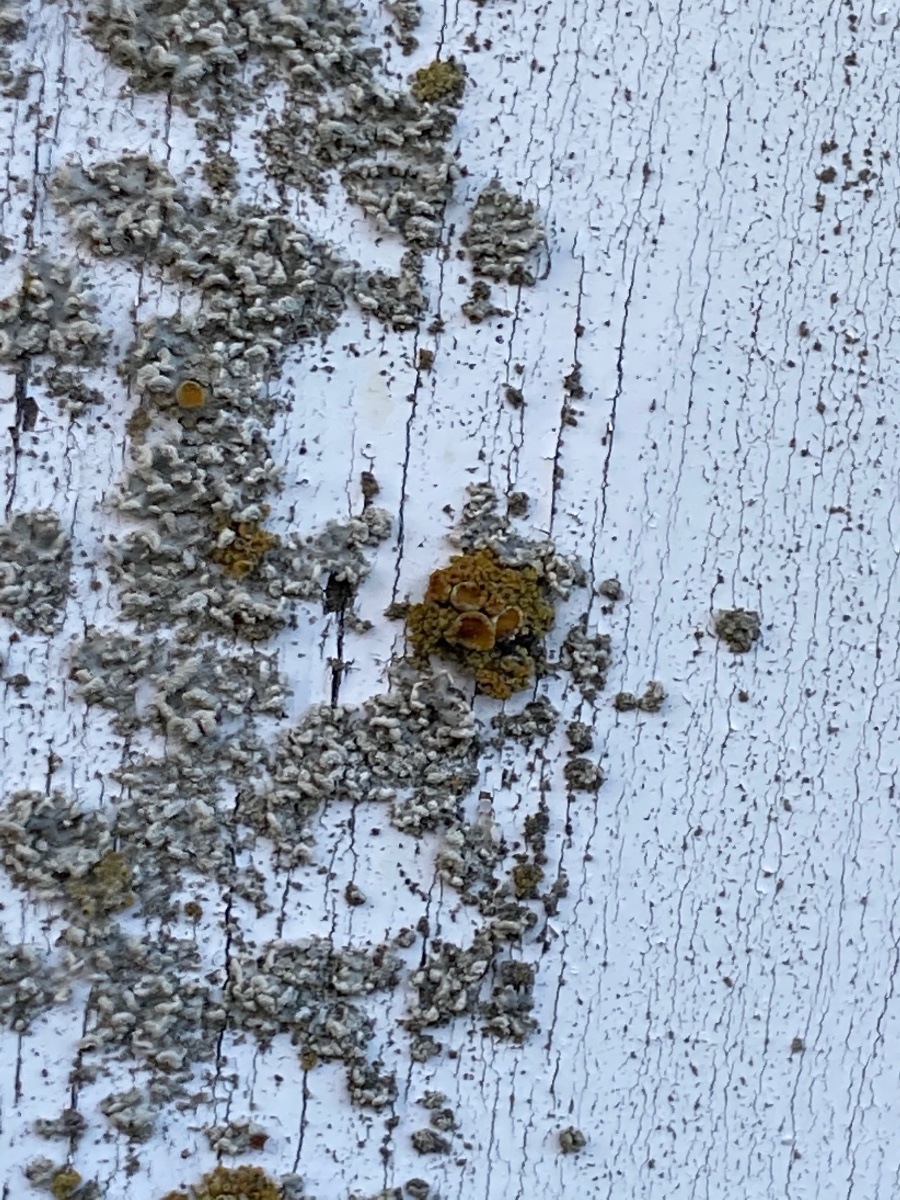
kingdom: Fungi
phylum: Ascomycota
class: Lecanoromycetes
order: Teloschistales
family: Teloschistaceae
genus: Polycauliona
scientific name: Polycauliona polycarpa
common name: mangefrugtet orangelav
